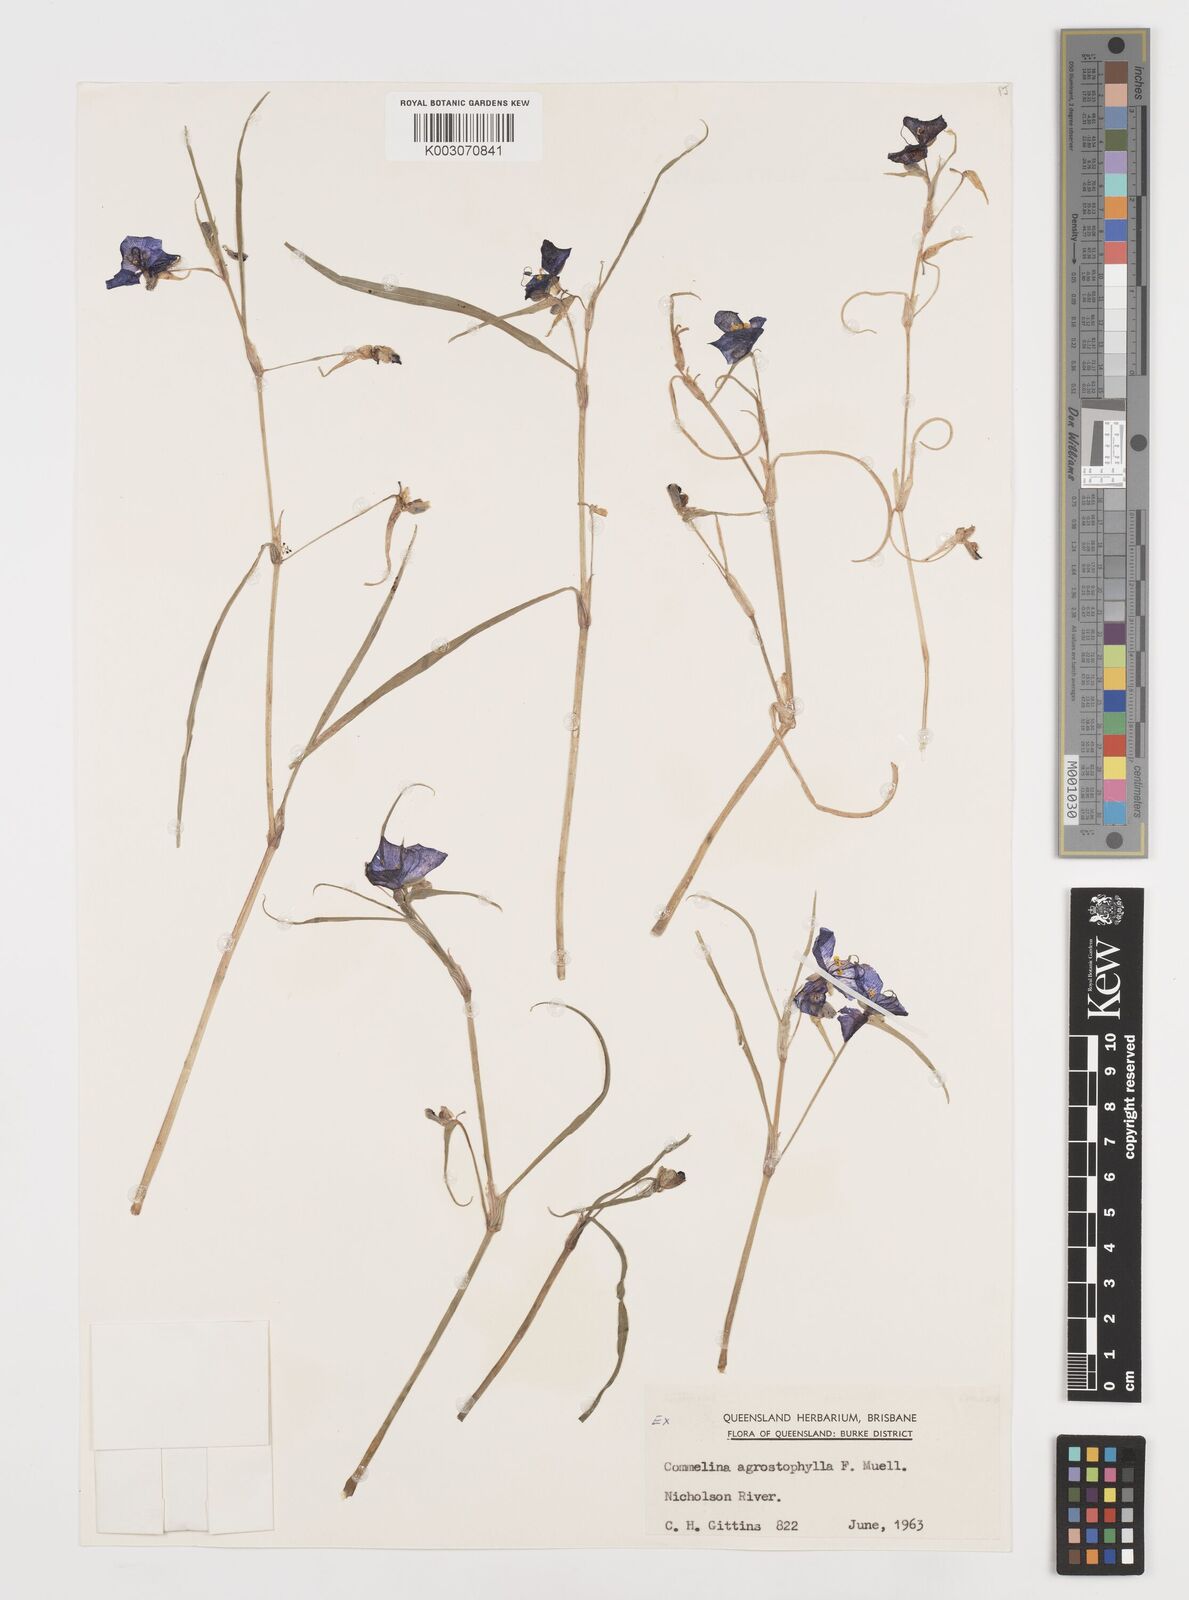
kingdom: Plantae
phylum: Tracheophyta
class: Liliopsida
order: Commelinales
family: Commelinaceae
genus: Commelina
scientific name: Commelina agrostophylla
